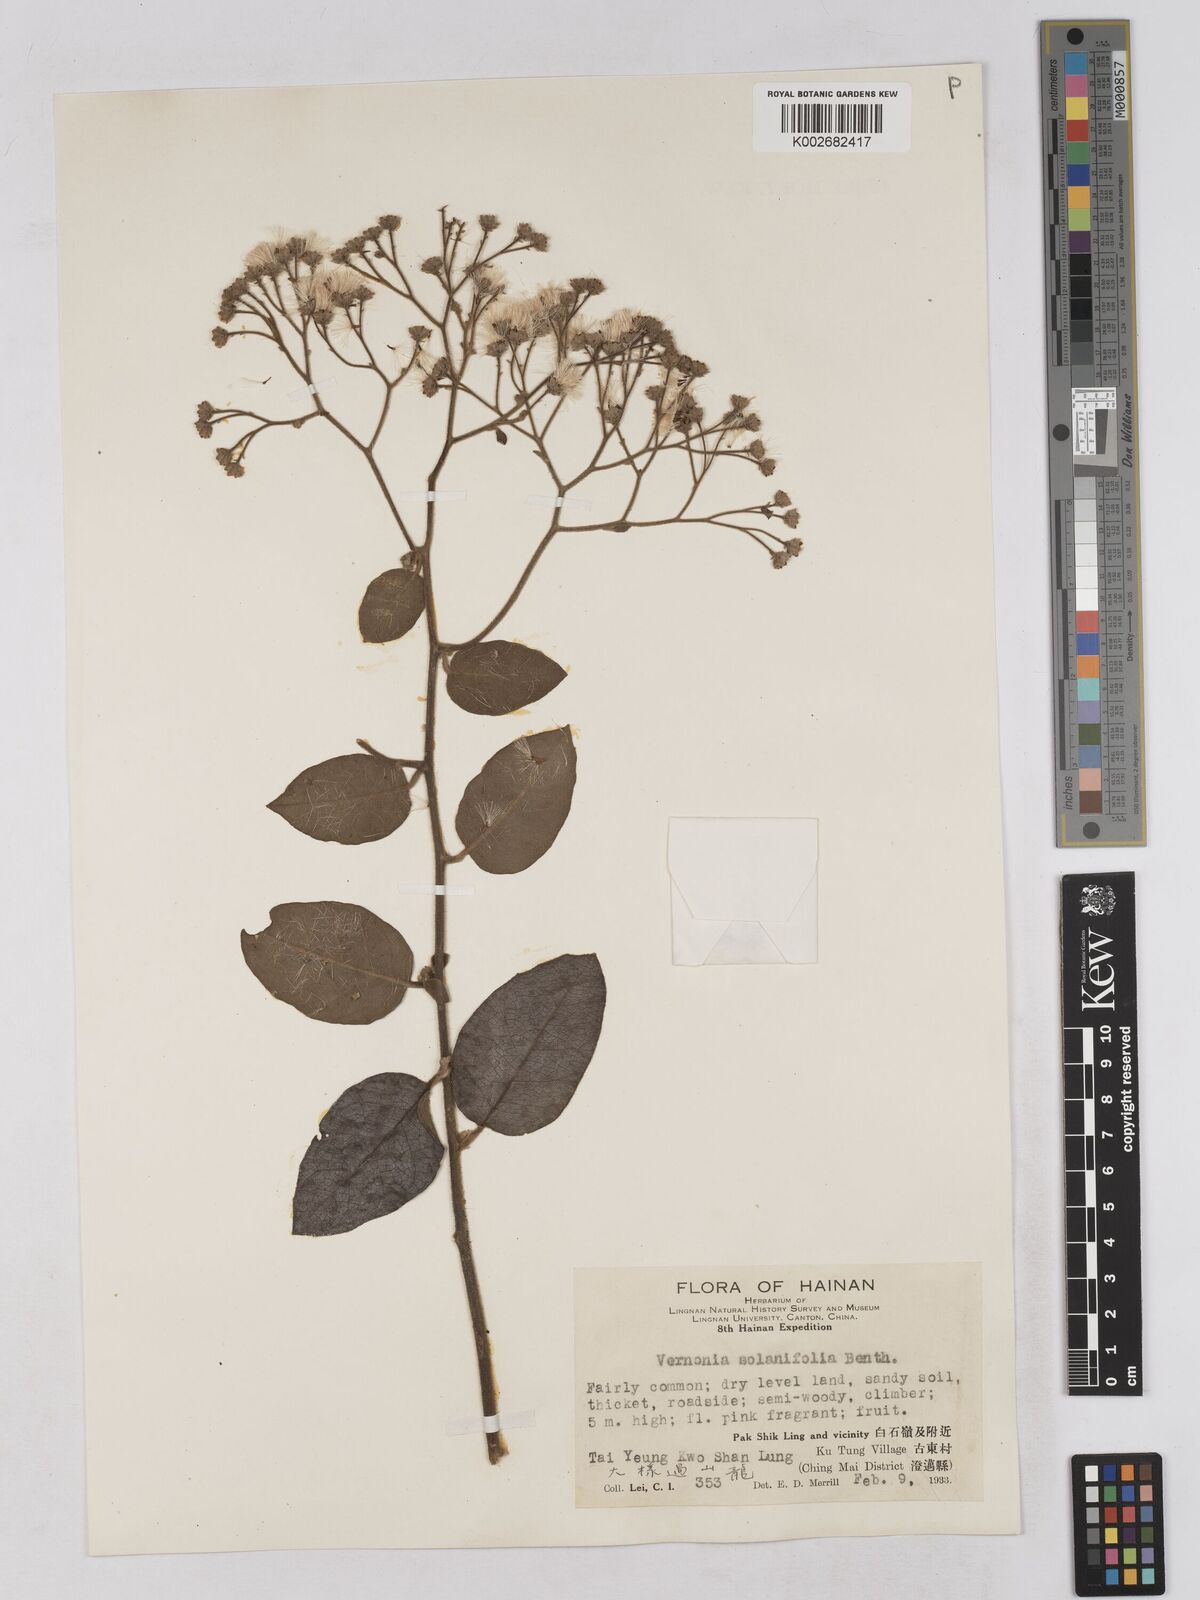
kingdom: Plantae
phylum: Tracheophyta
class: Magnoliopsida
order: Asterales
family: Asteraceae
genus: Strobocalyx
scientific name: Strobocalyx solanifolia
